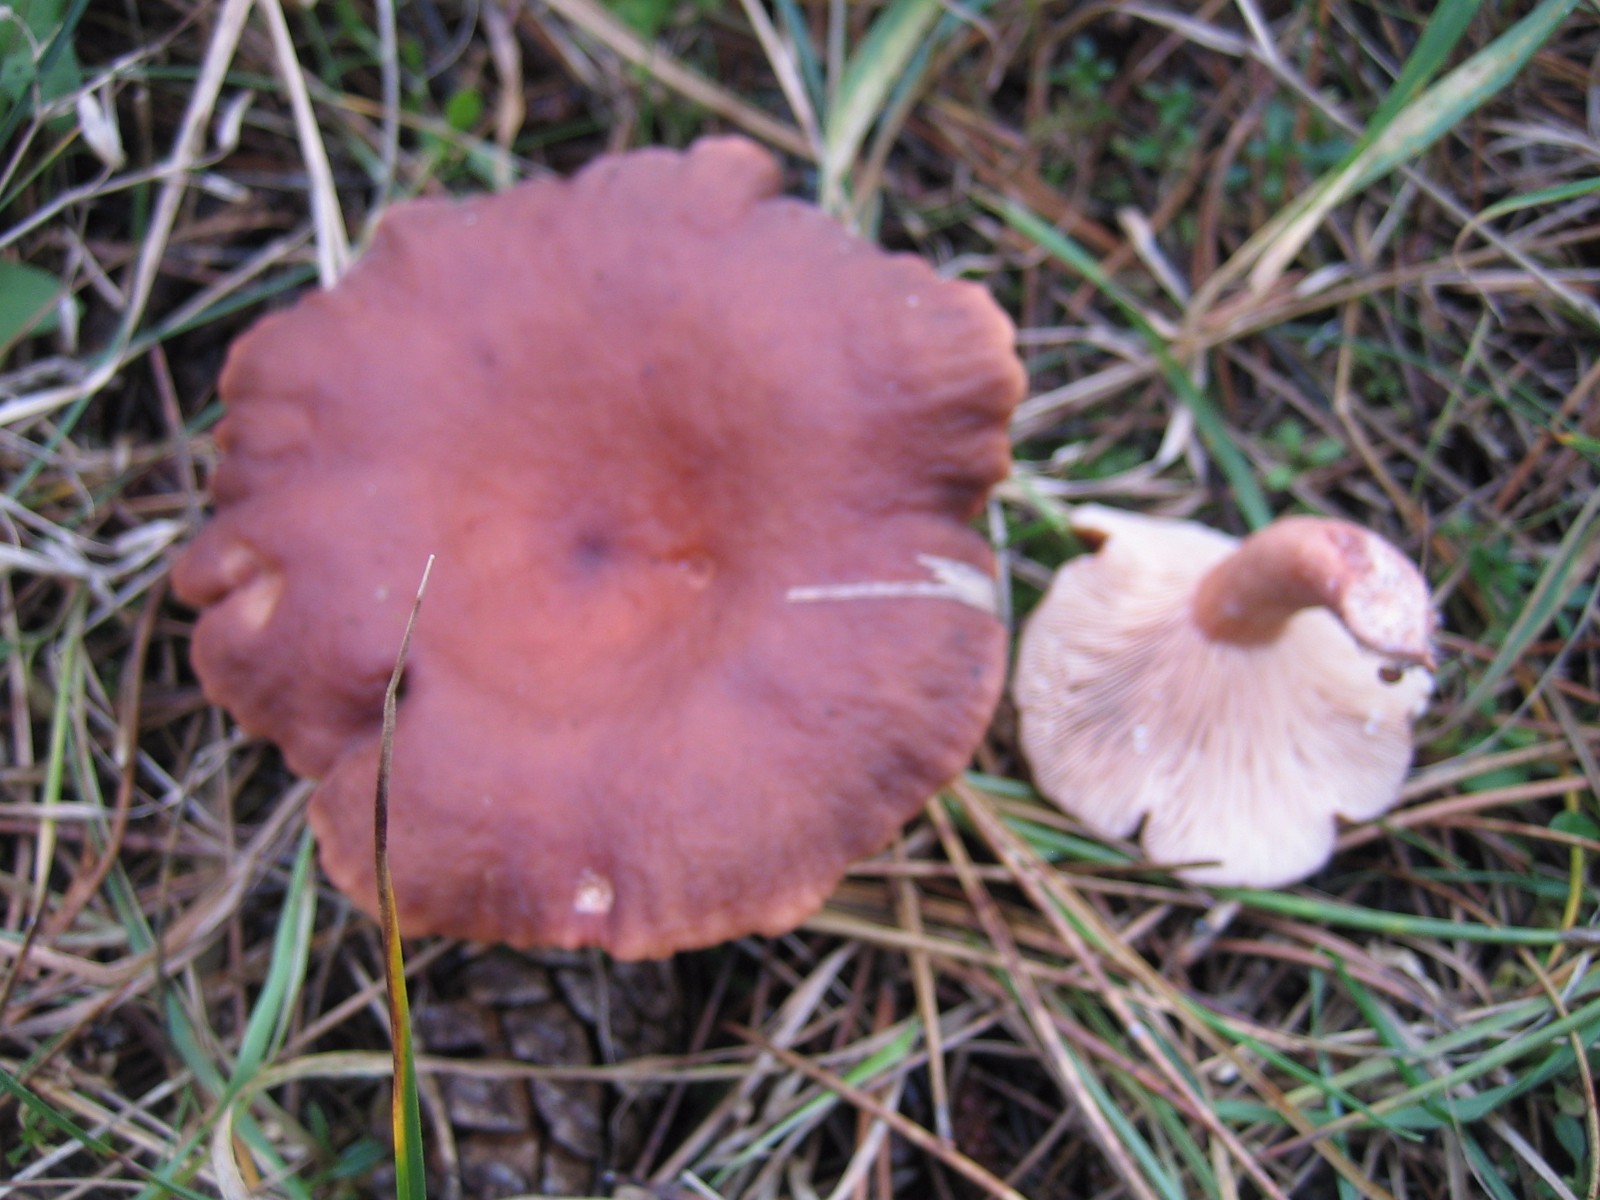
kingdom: Fungi
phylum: Basidiomycota
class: Agaricomycetes
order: Russulales
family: Russulaceae
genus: Lactarius
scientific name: Lactarius rufus
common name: rødbrun mælkehat
